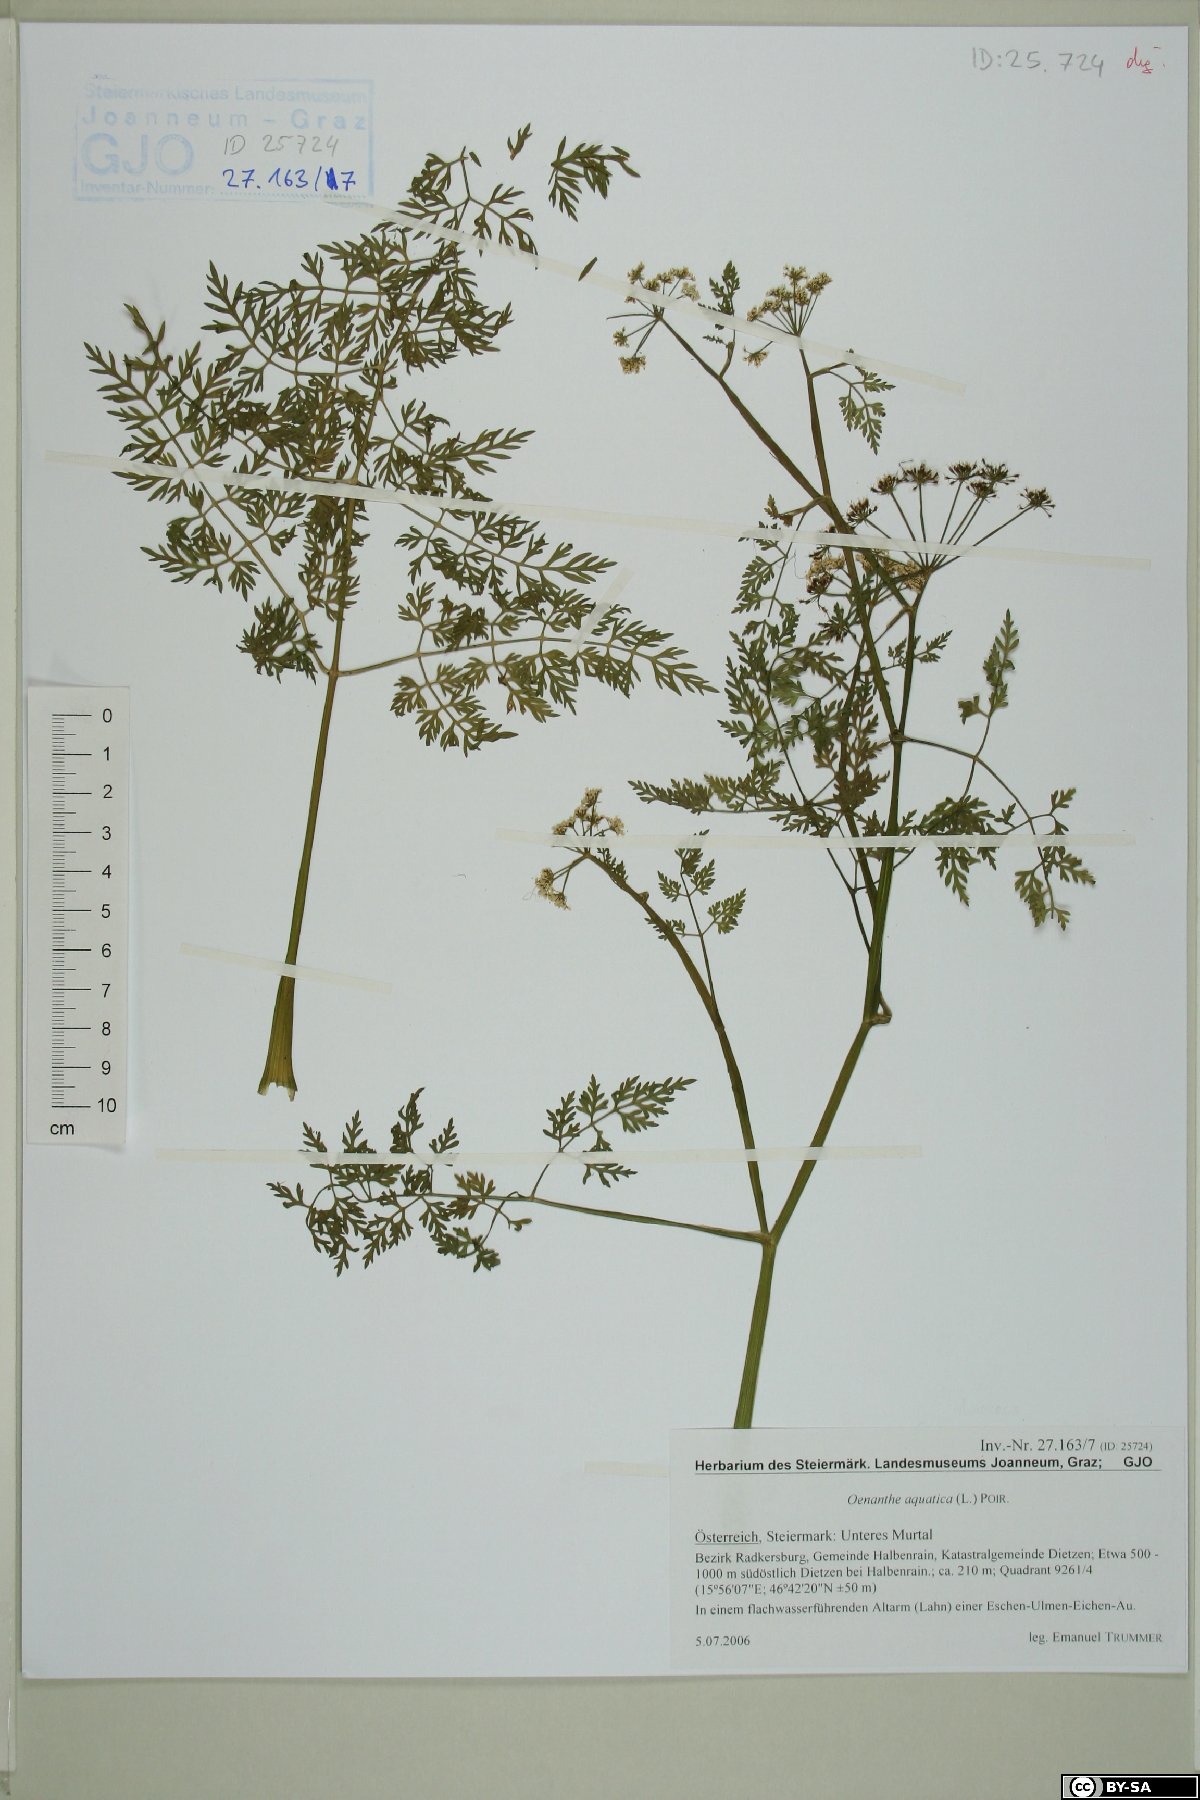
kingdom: Plantae
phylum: Tracheophyta
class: Magnoliopsida
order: Apiales
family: Apiaceae
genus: Oenanthe
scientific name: Oenanthe aquatica
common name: Fine-leaved water-dropwort
